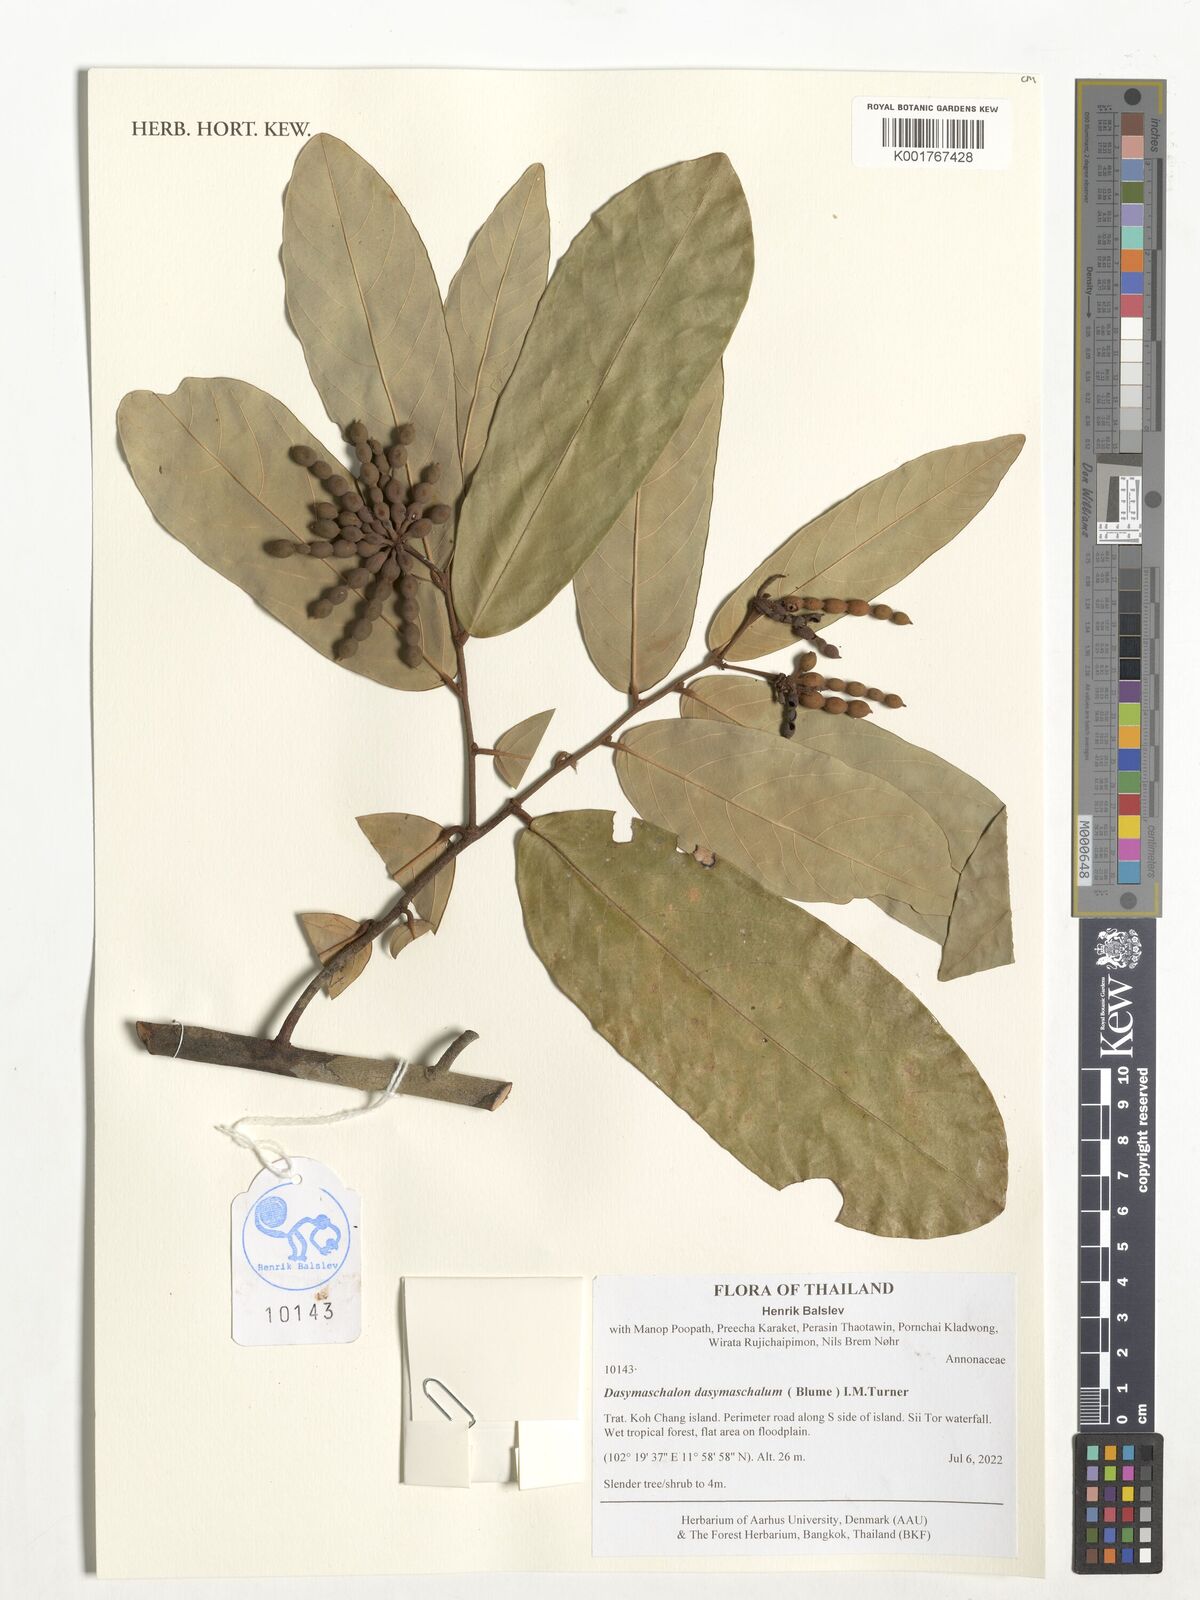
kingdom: Plantae
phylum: Tracheophyta
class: Magnoliopsida
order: Magnoliales
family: Annonaceae
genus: Dasymaschalon
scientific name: Dasymaschalon dasymaschalum
